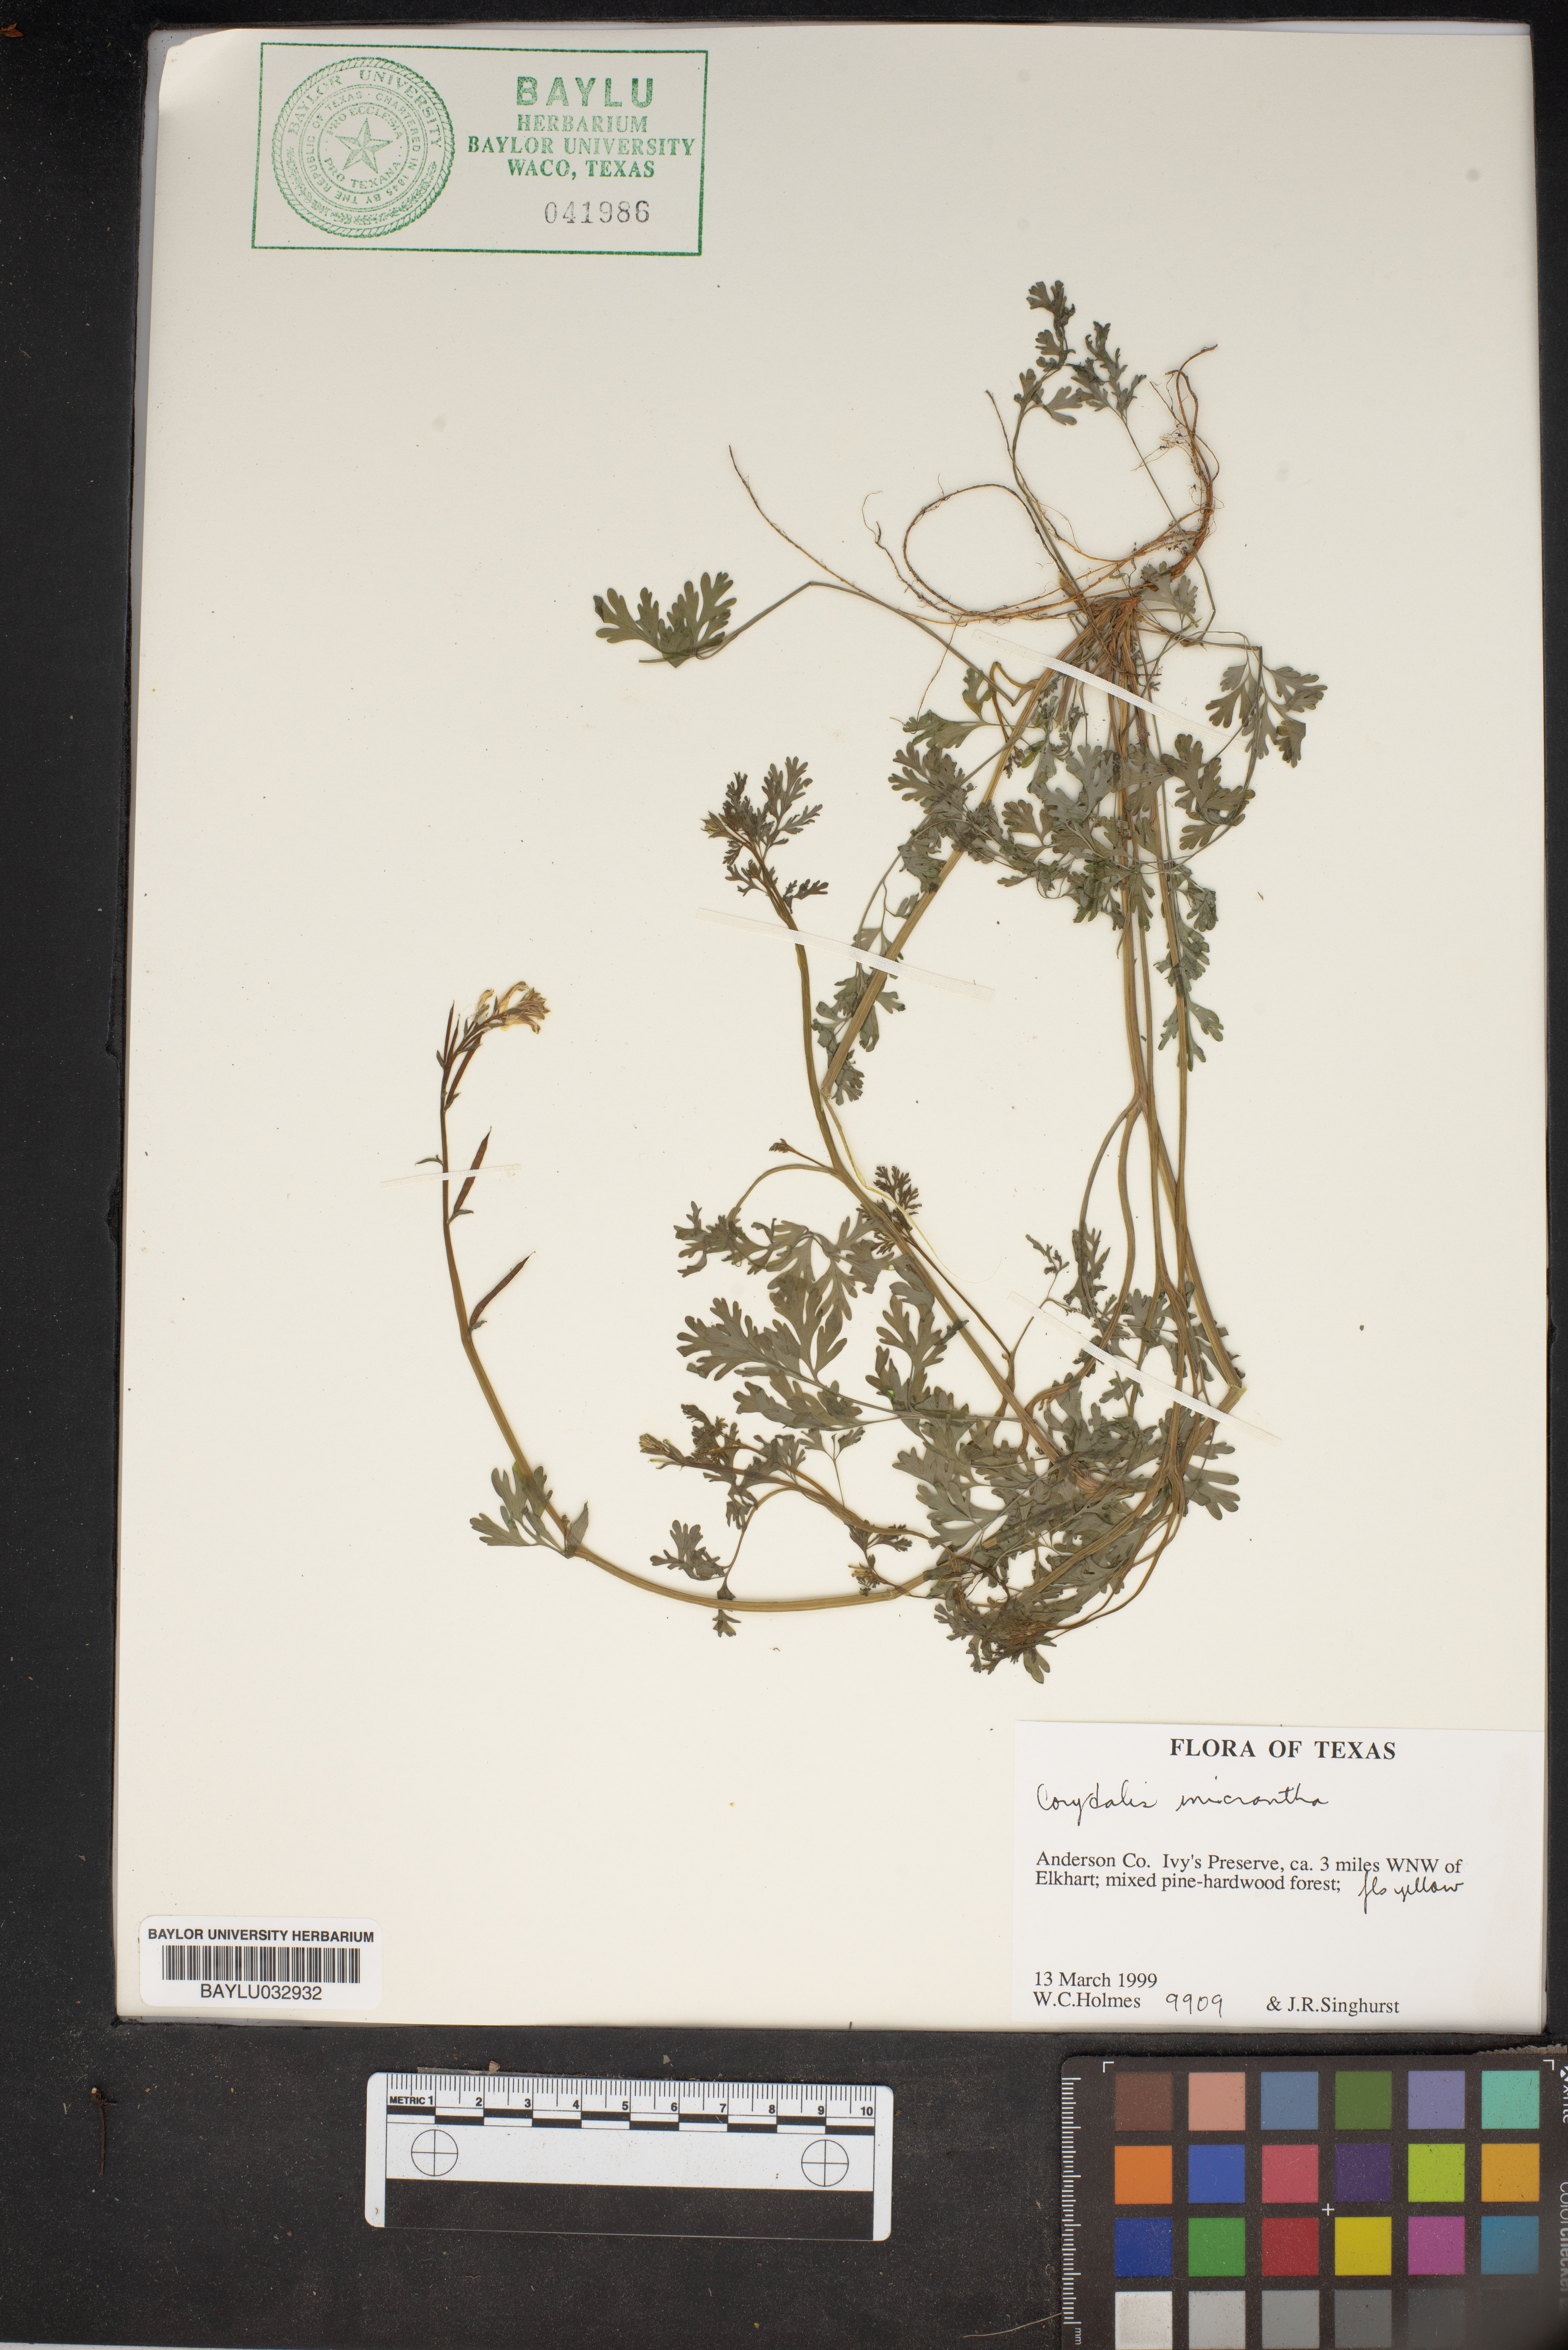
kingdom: Plantae
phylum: Tracheophyta
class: Magnoliopsida
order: Ranunculales
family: Papaveraceae
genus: Corydalis
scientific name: Corydalis micrantha
